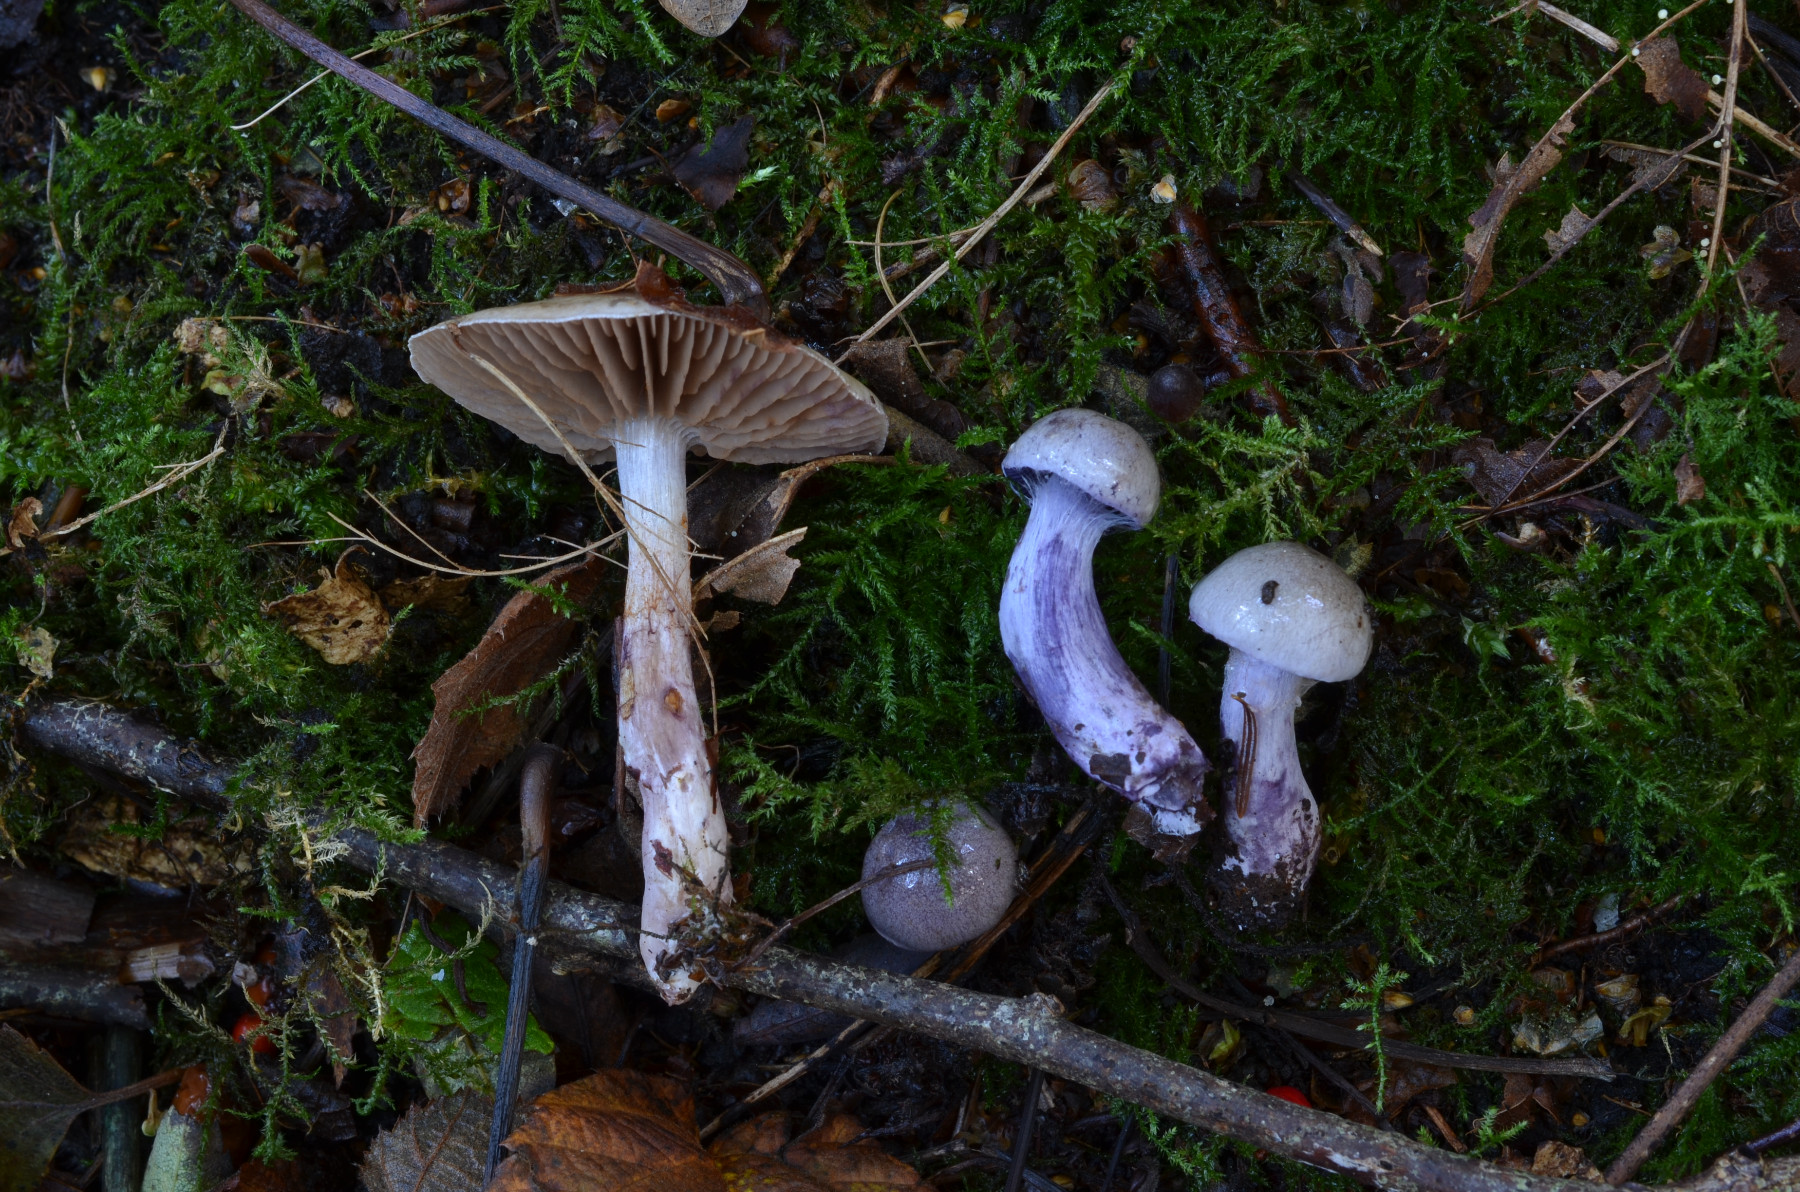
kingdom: Fungi
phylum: Basidiomycota
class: Agaricomycetes
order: Agaricales
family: Cortinariaceae
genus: Thaxterogaster
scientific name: Thaxterogaster subporphyropus
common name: ametyst-slørhat
